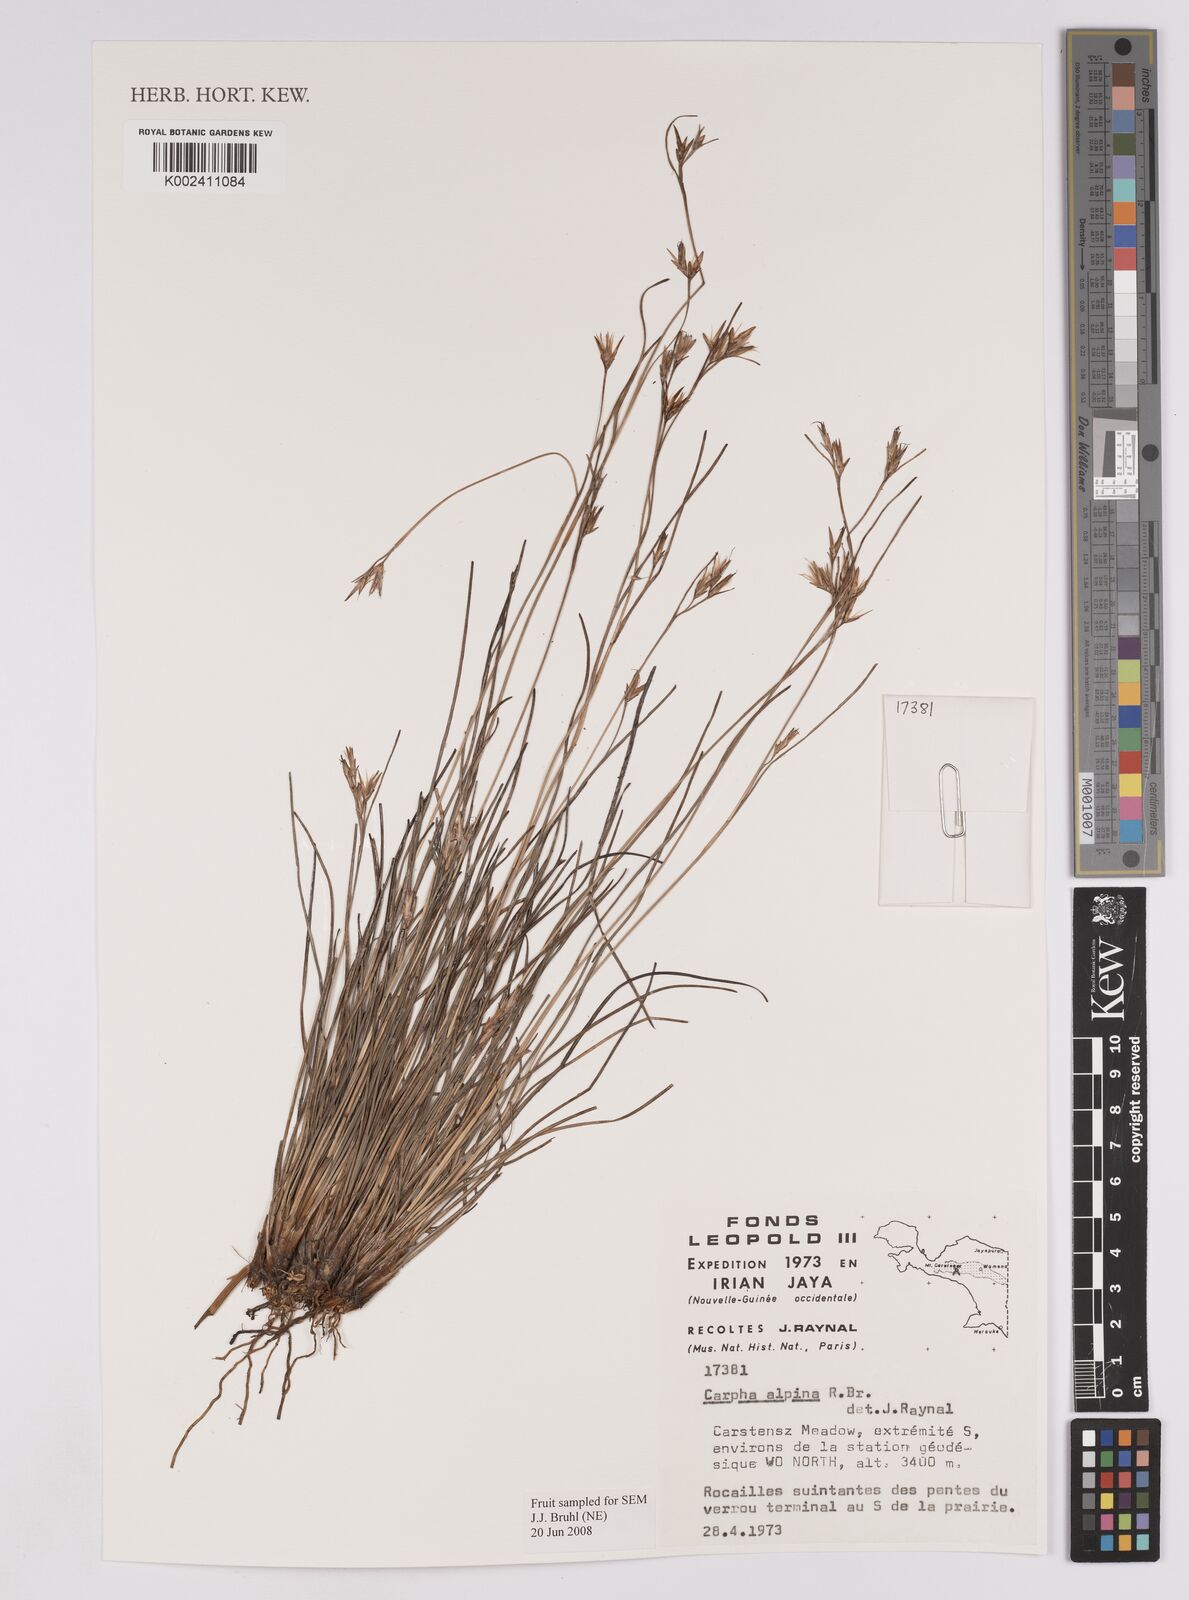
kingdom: Plantae
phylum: Tracheophyta
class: Liliopsida
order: Poales
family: Cyperaceae
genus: Carpha
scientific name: Carpha alpina
